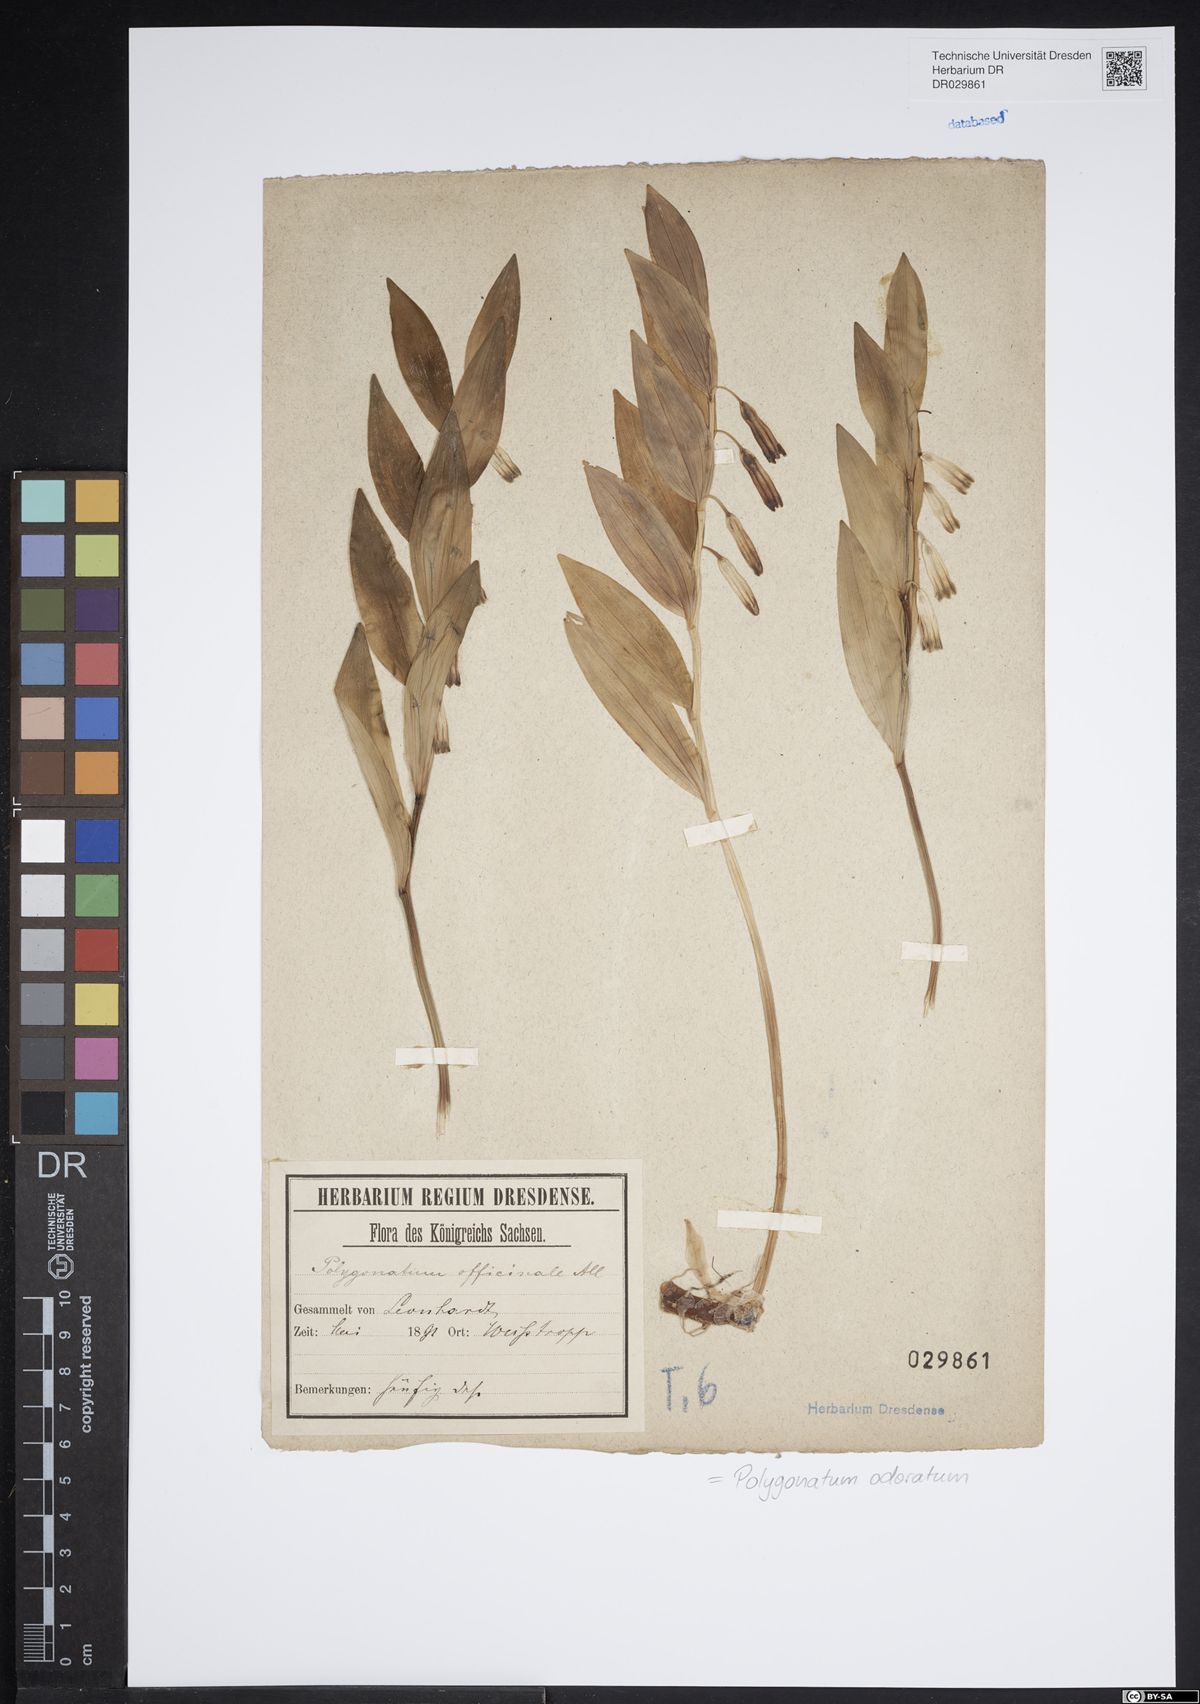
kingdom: Plantae
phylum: Tracheophyta
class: Liliopsida
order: Asparagales
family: Asparagaceae
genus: Polygonatum
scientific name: Polygonatum odoratum
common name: Angular solomon's-seal
